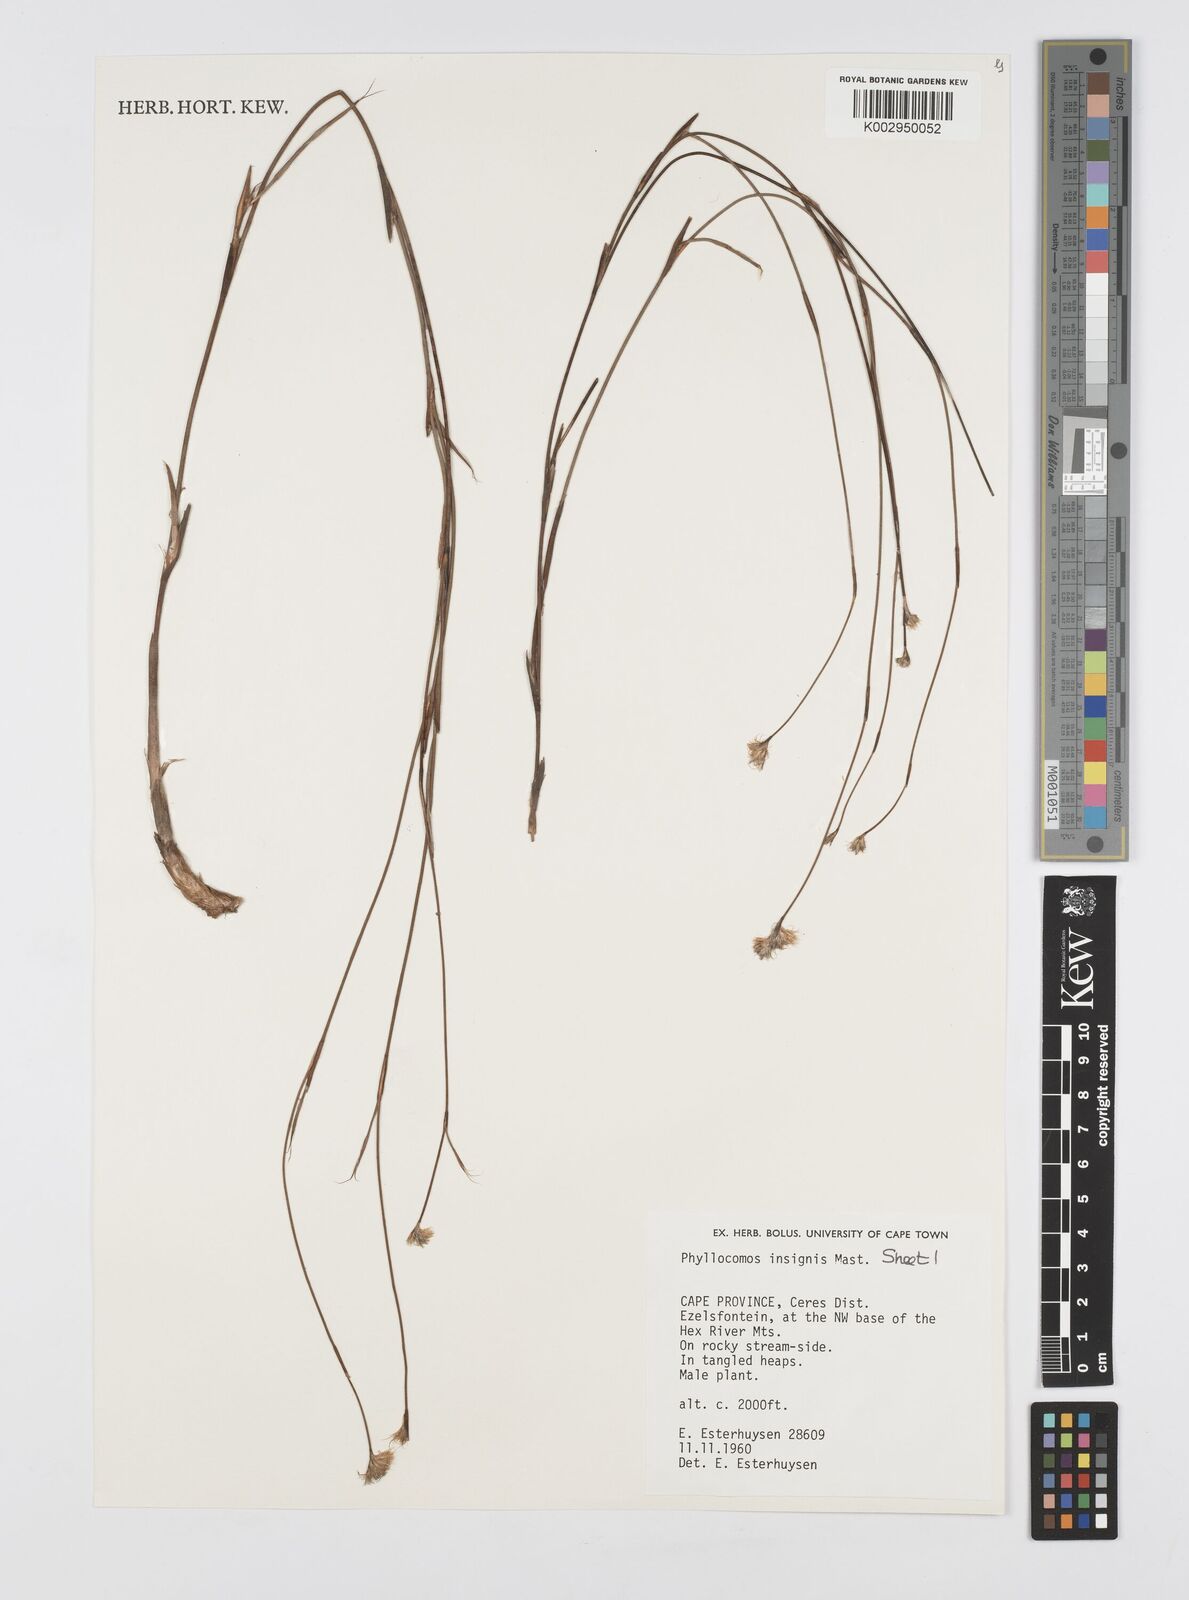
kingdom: Plantae
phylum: Tracheophyta
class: Liliopsida
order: Poales
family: Restionaceae
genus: Anthochortus
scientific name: Anthochortus insignis
